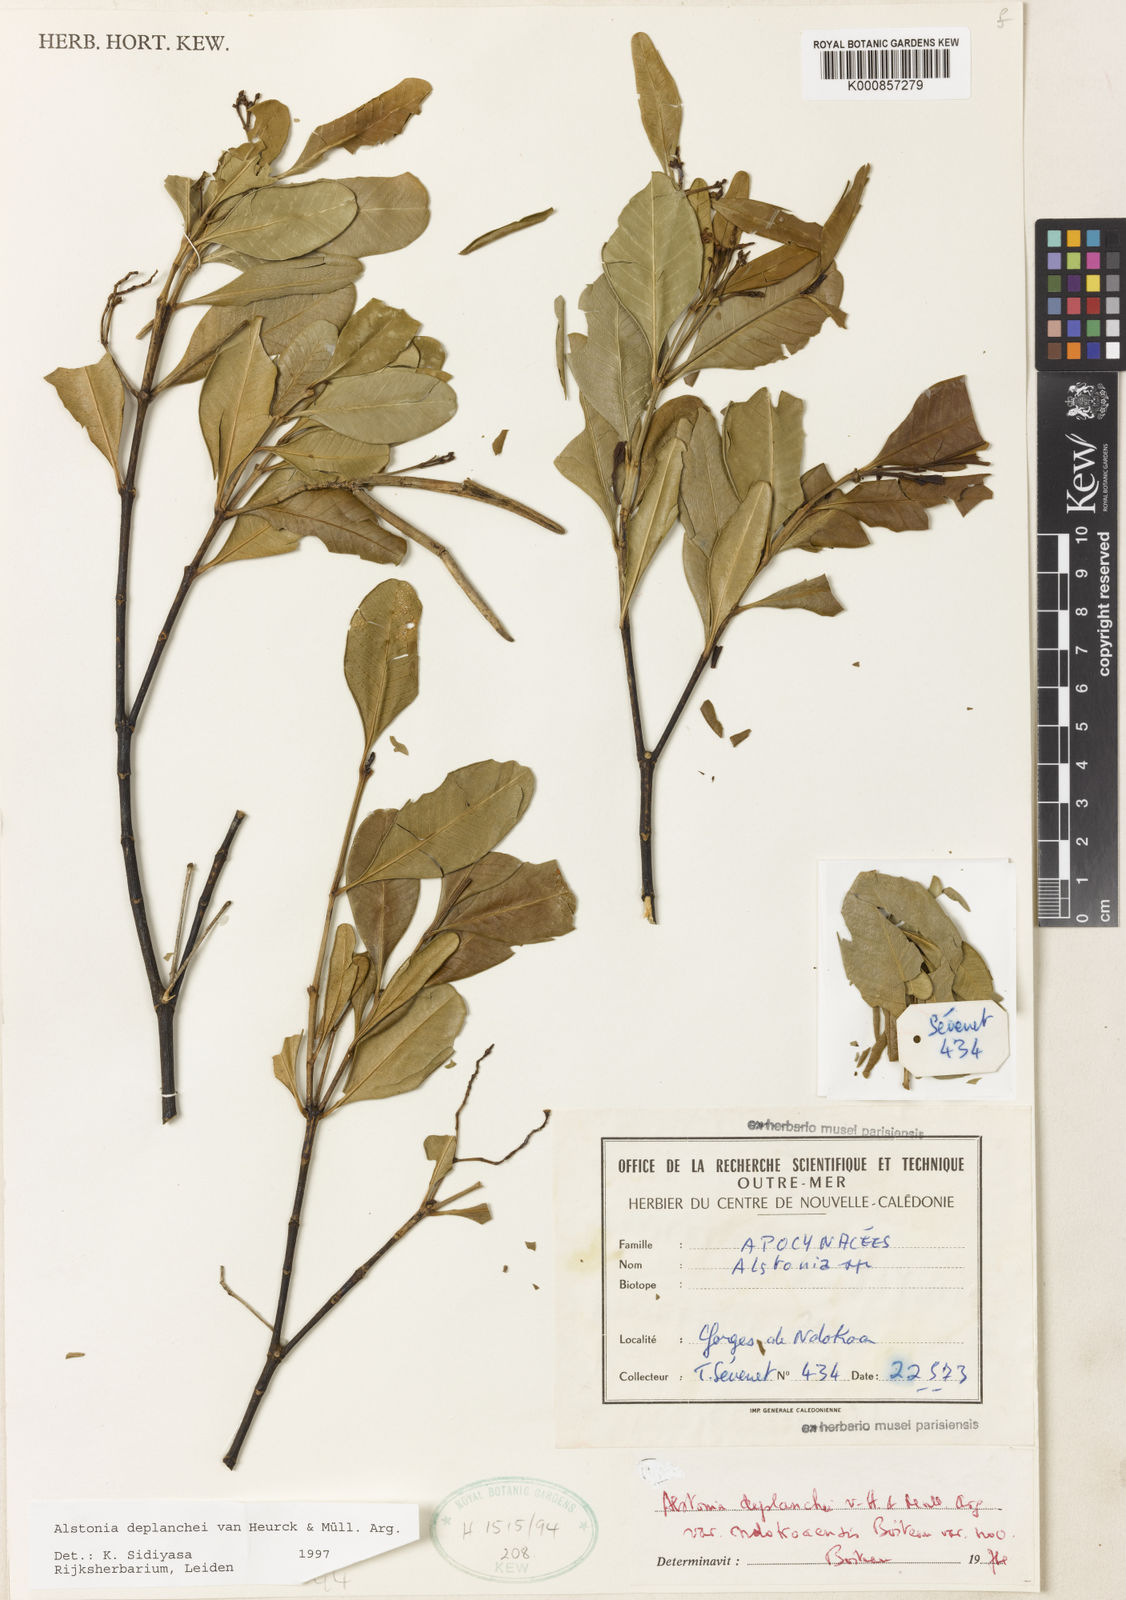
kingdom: Plantae
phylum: Tracheophyta
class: Magnoliopsida
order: Gentianales
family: Apocynaceae
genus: Alstonia
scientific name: Alstonia
